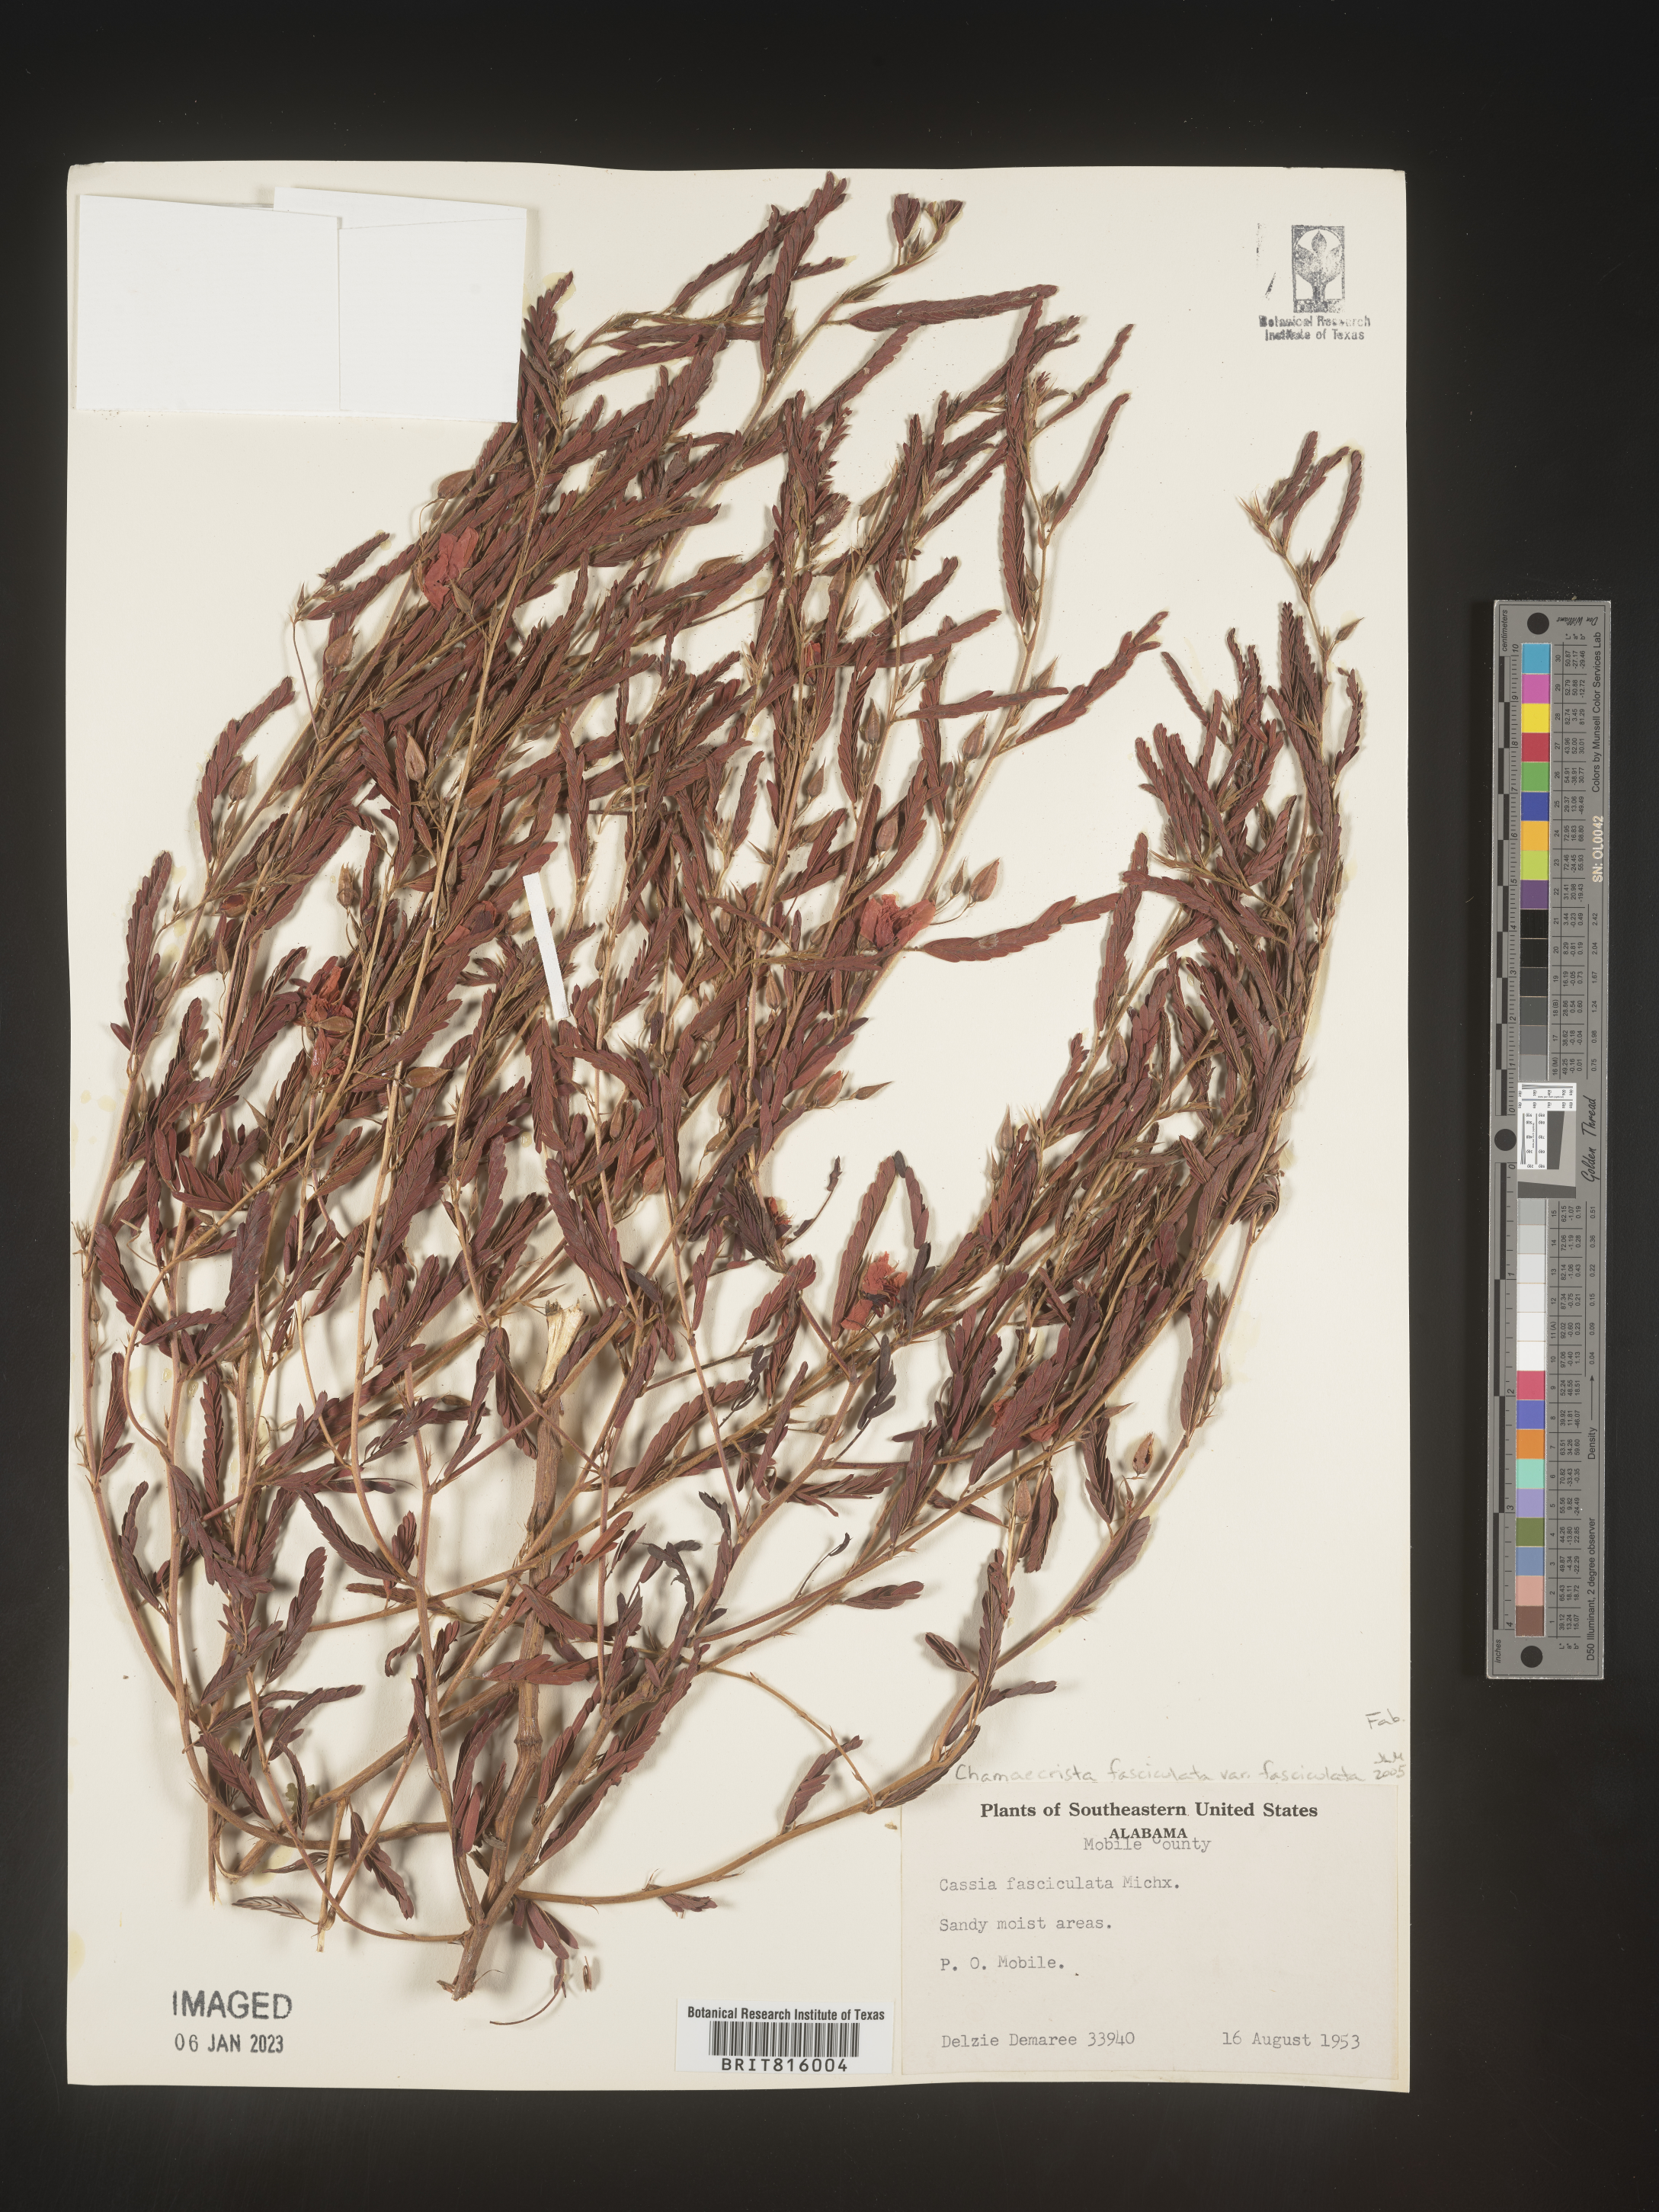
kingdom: Plantae
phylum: Tracheophyta
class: Magnoliopsida
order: Fabales
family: Fabaceae
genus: Chamaecrista
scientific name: Chamaecrista fasciculata
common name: Golden cassia
